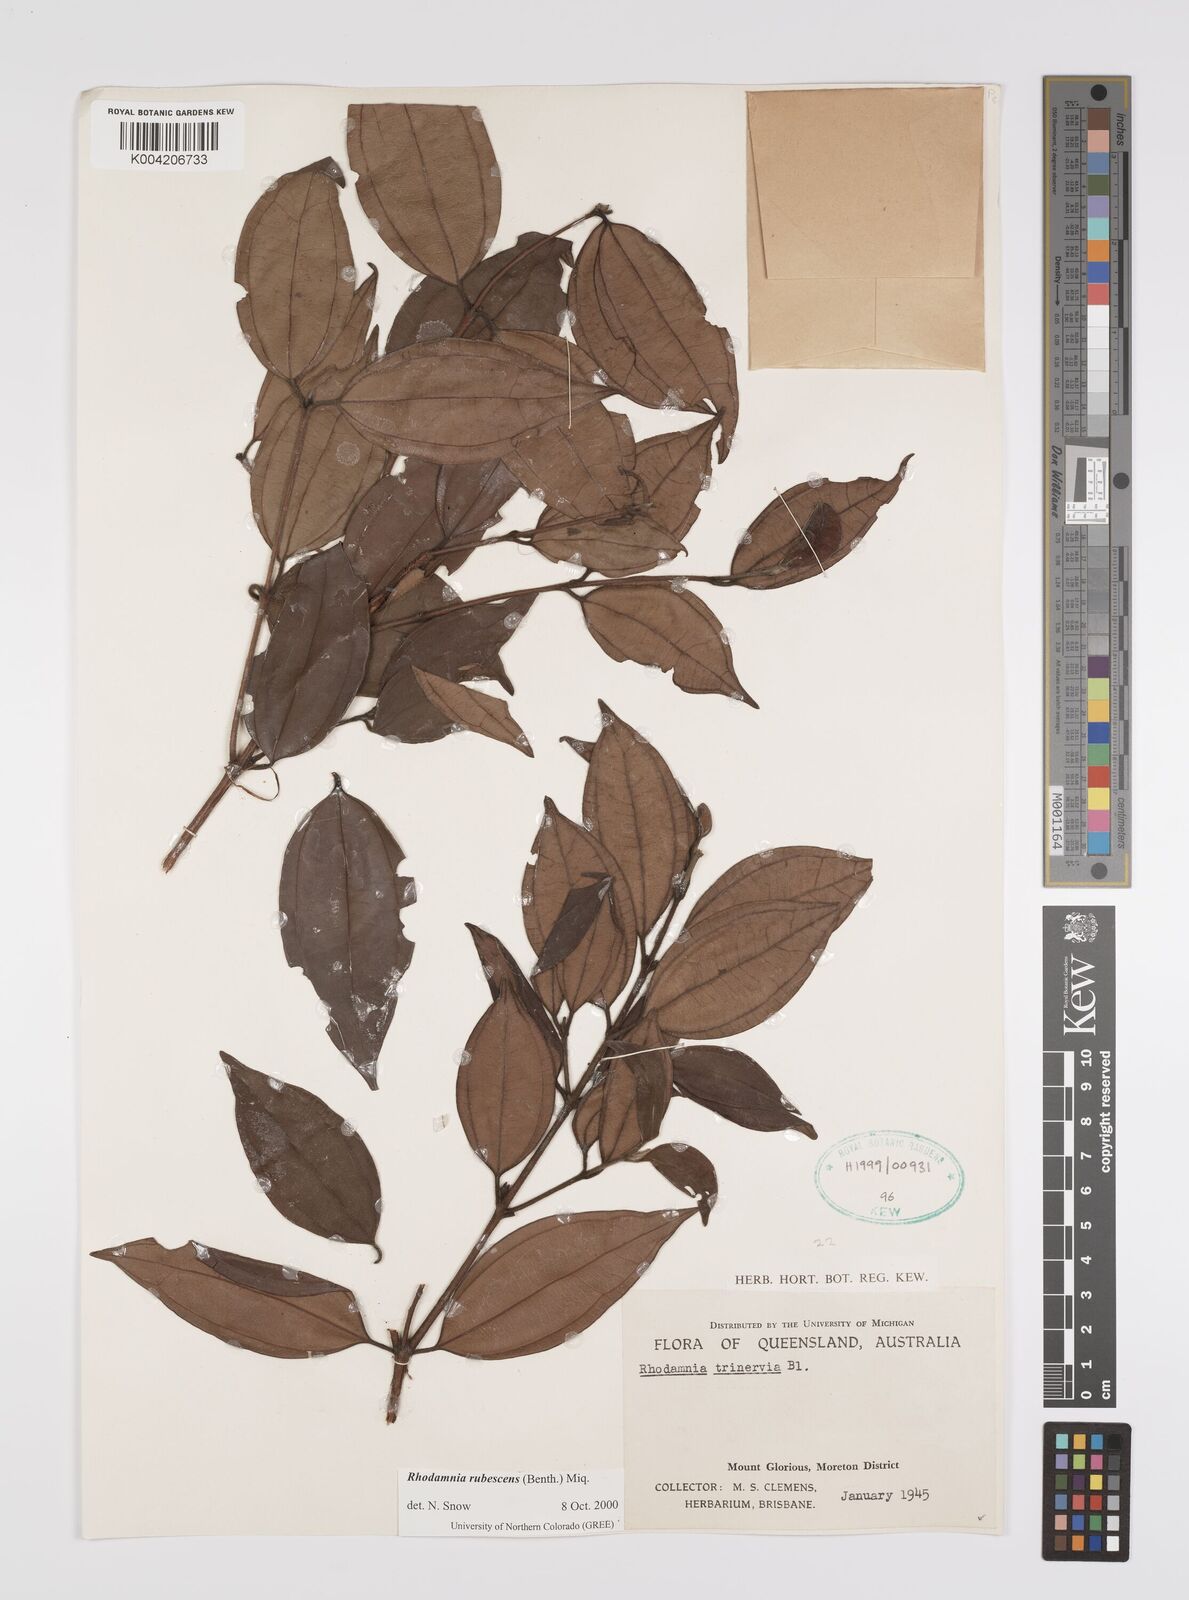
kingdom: Plantae
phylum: Tracheophyta
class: Magnoliopsida
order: Myrtales
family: Myrtaceae
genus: Rhodamnia
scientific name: Rhodamnia rubescens
